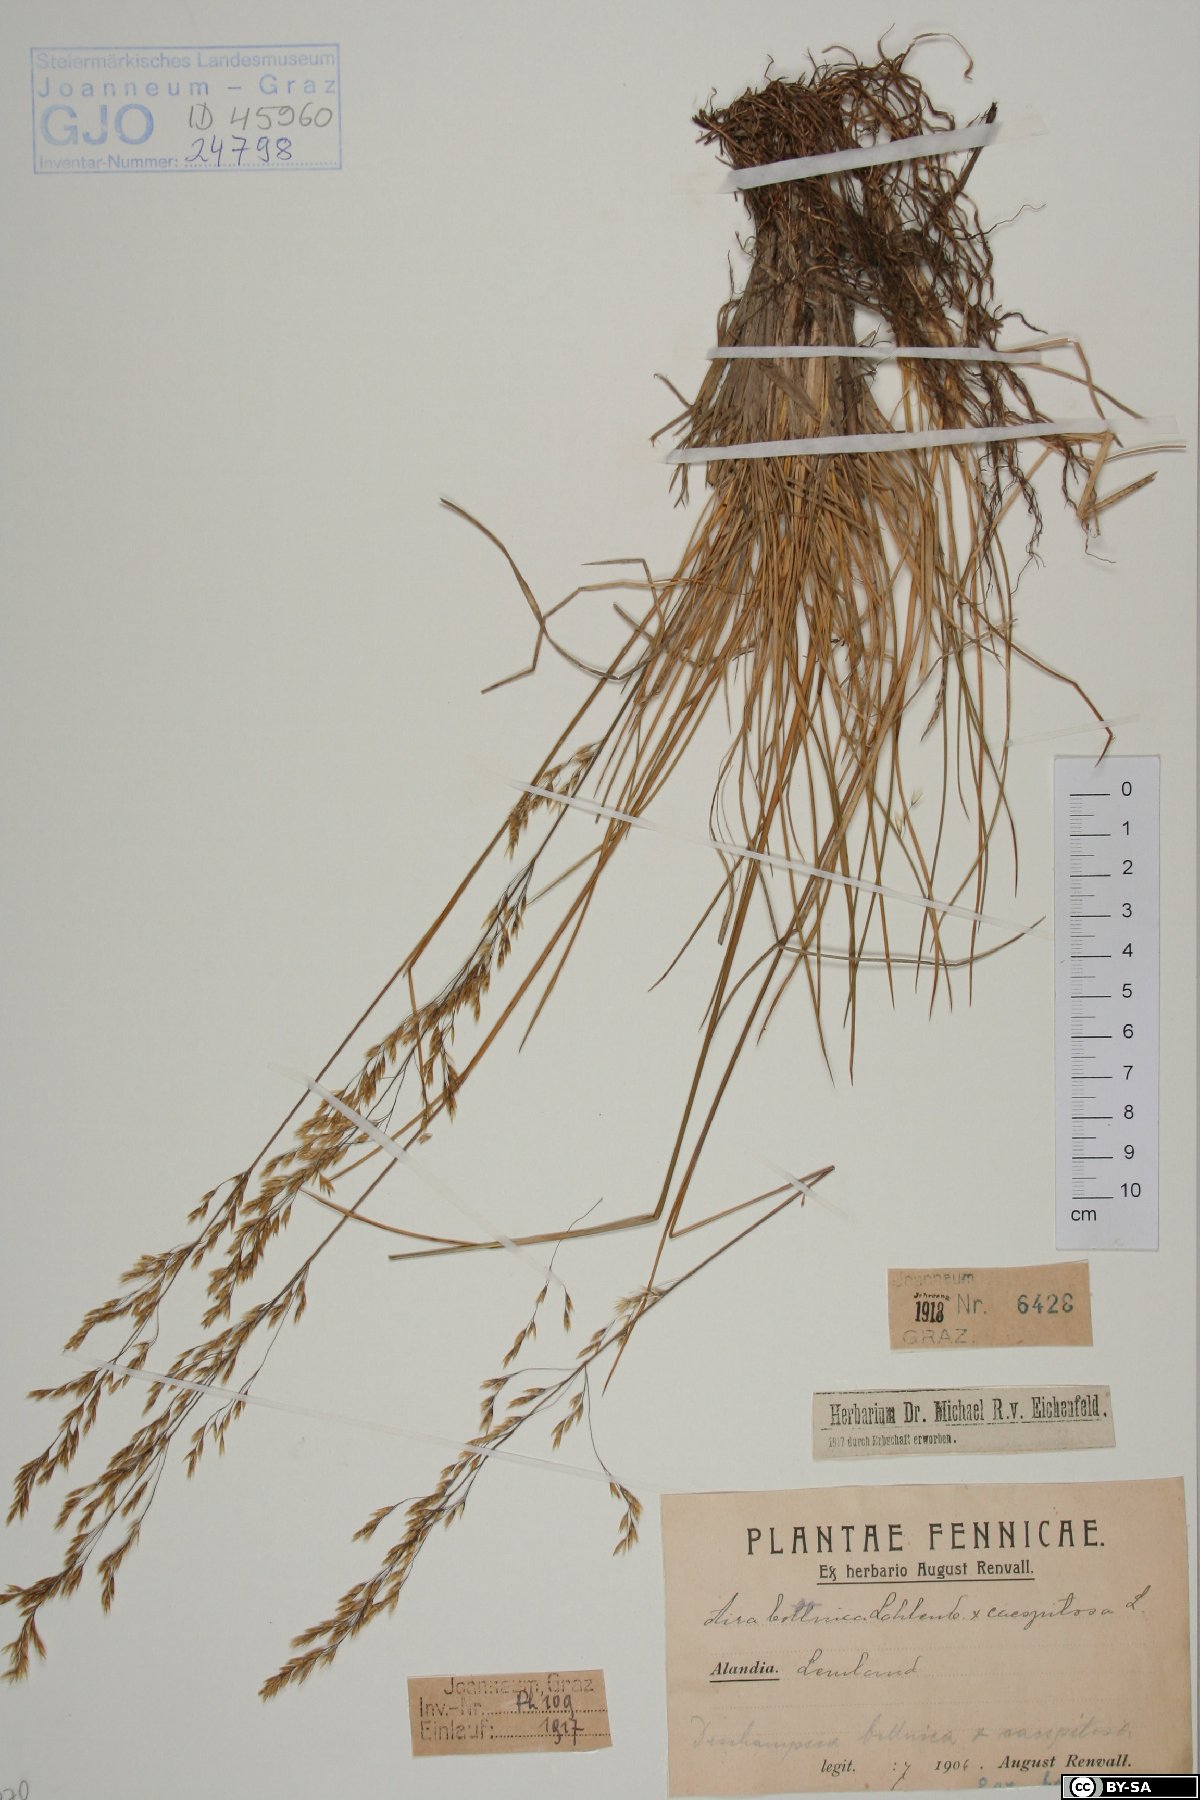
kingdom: Plantae
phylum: Tracheophyta
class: Liliopsida
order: Poales
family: Poaceae
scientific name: Poaceae
